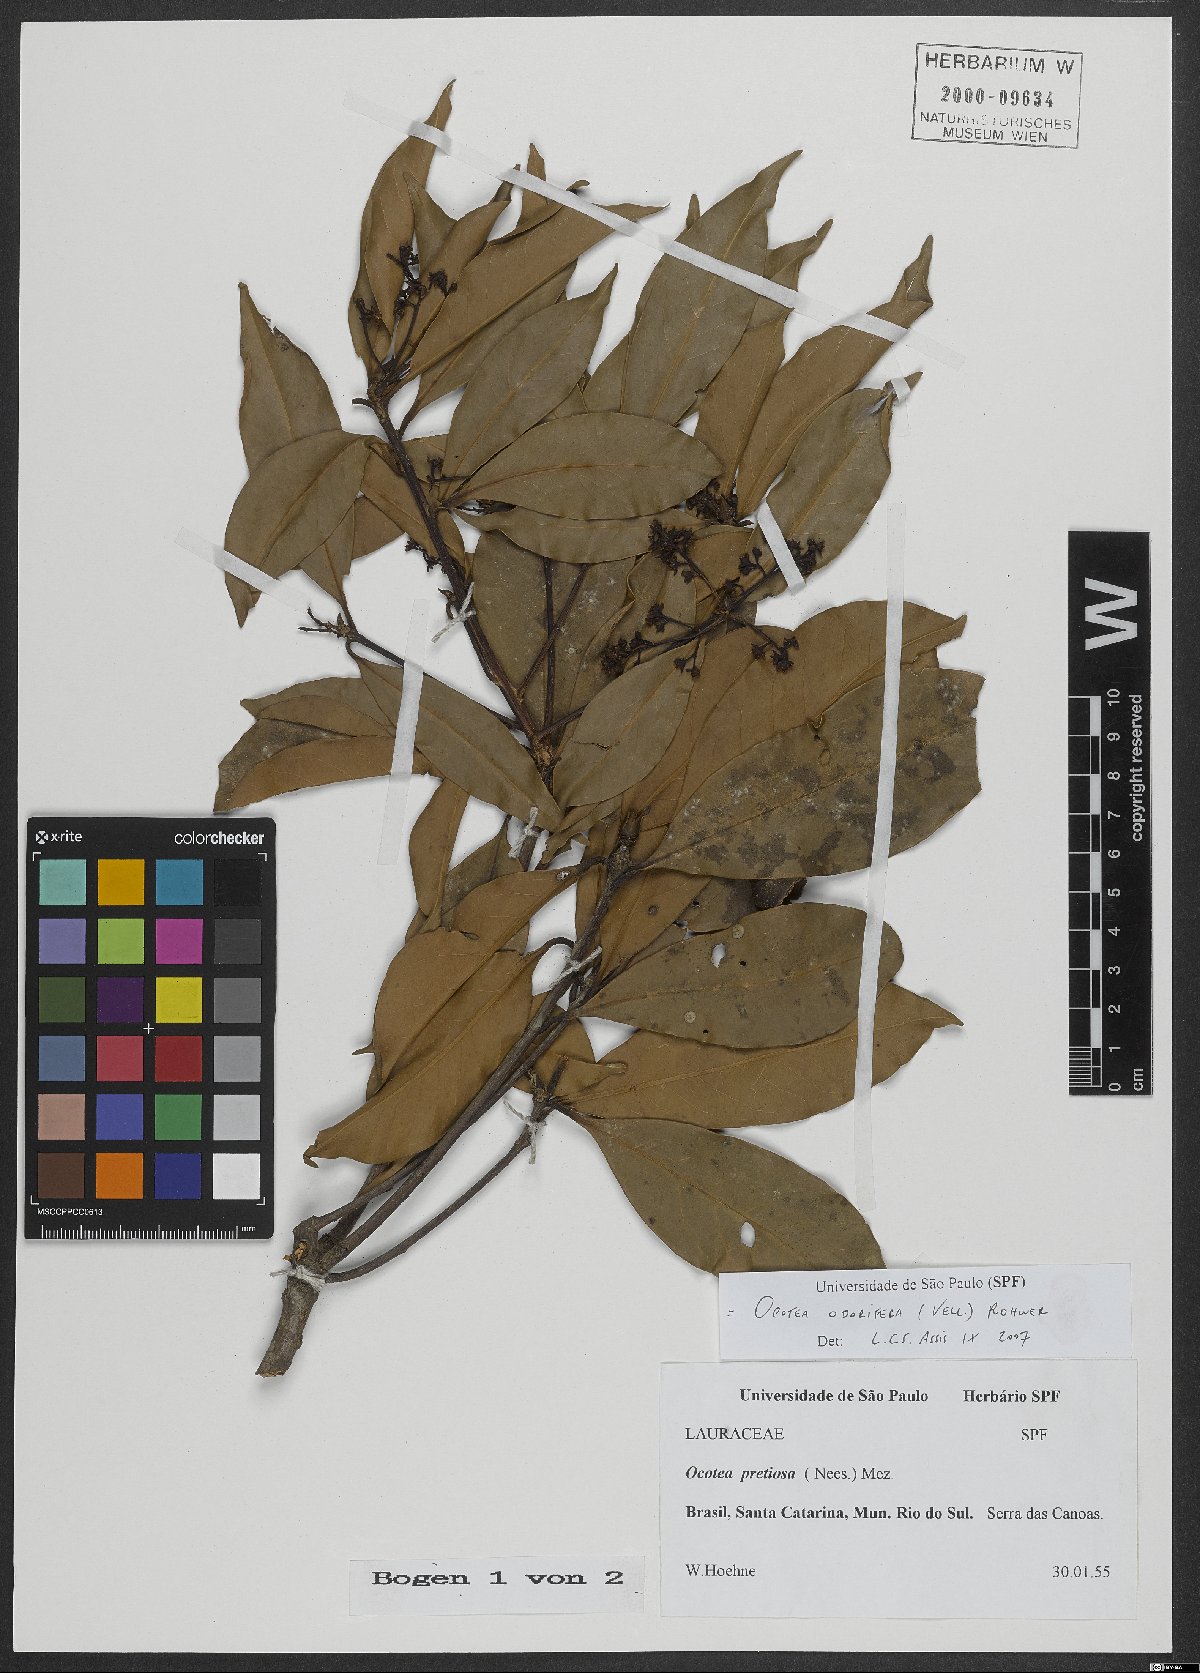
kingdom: Plantae
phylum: Tracheophyta
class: Magnoliopsida
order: Laurales
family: Lauraceae
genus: Mespilodaphne
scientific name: Mespilodaphne quixos
